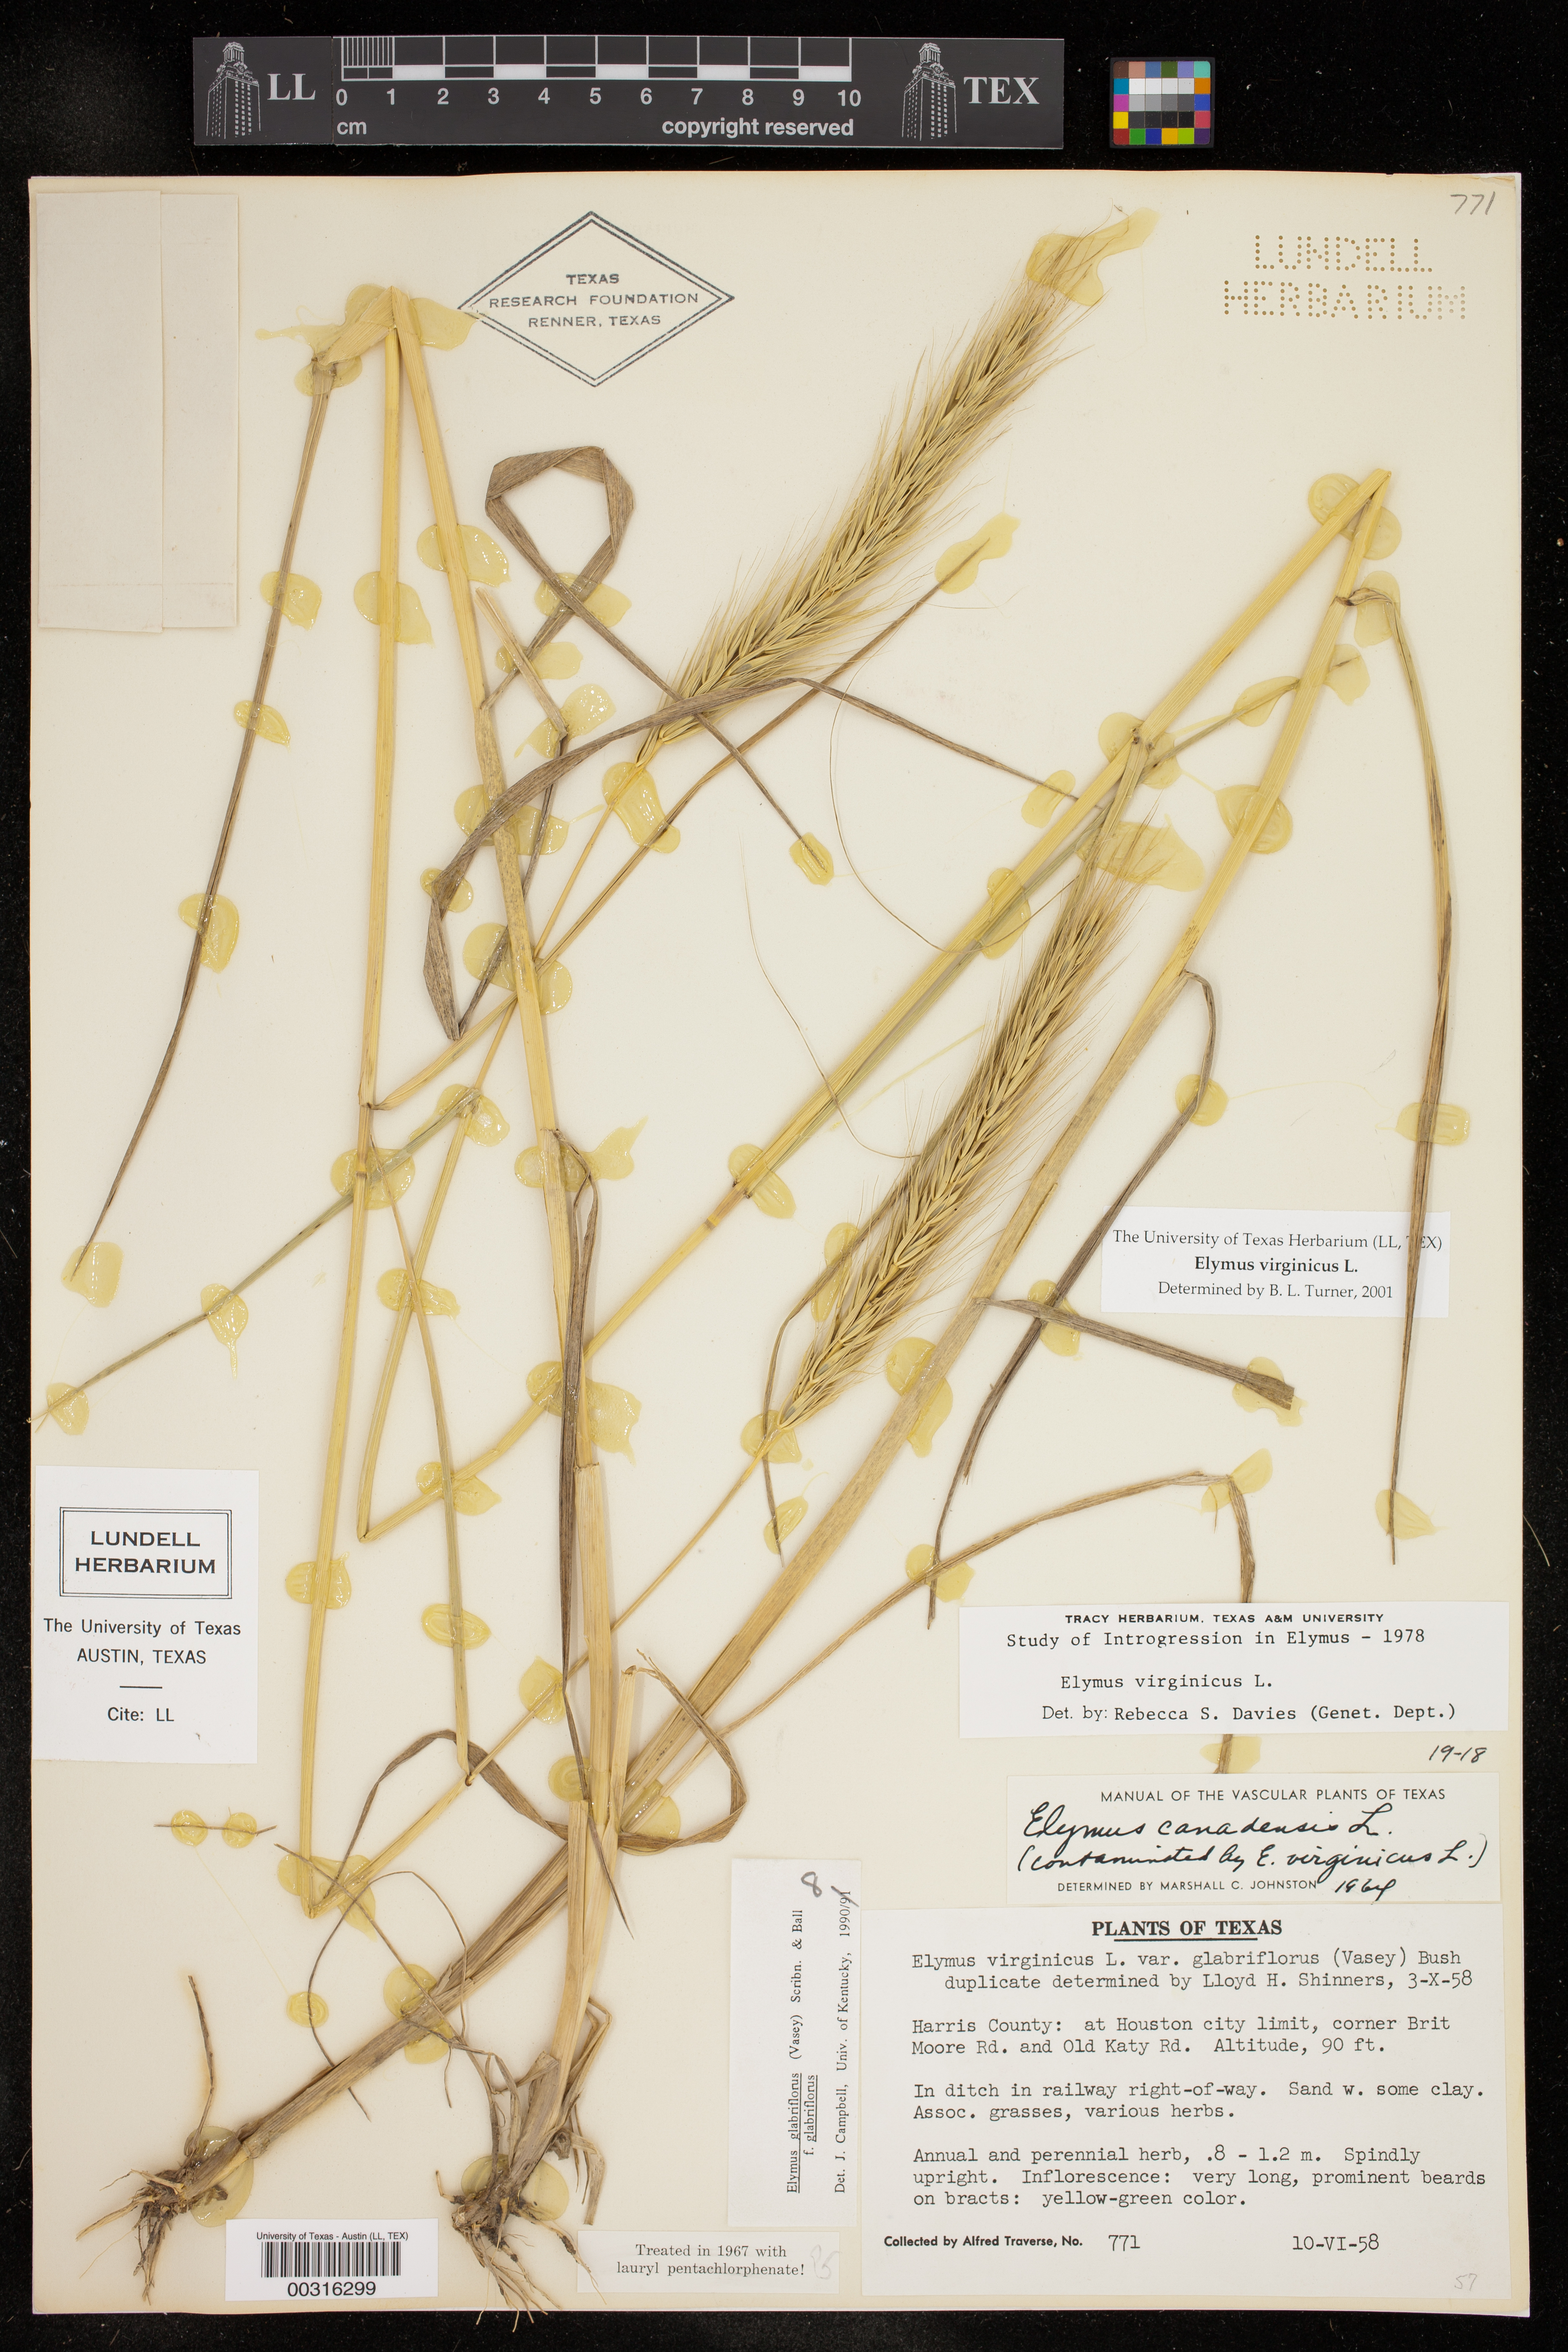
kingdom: Plantae
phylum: Tracheophyta
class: Liliopsida
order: Poales
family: Poaceae
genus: Elymus
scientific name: Elymus virginicus
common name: Common eastern wildrye
